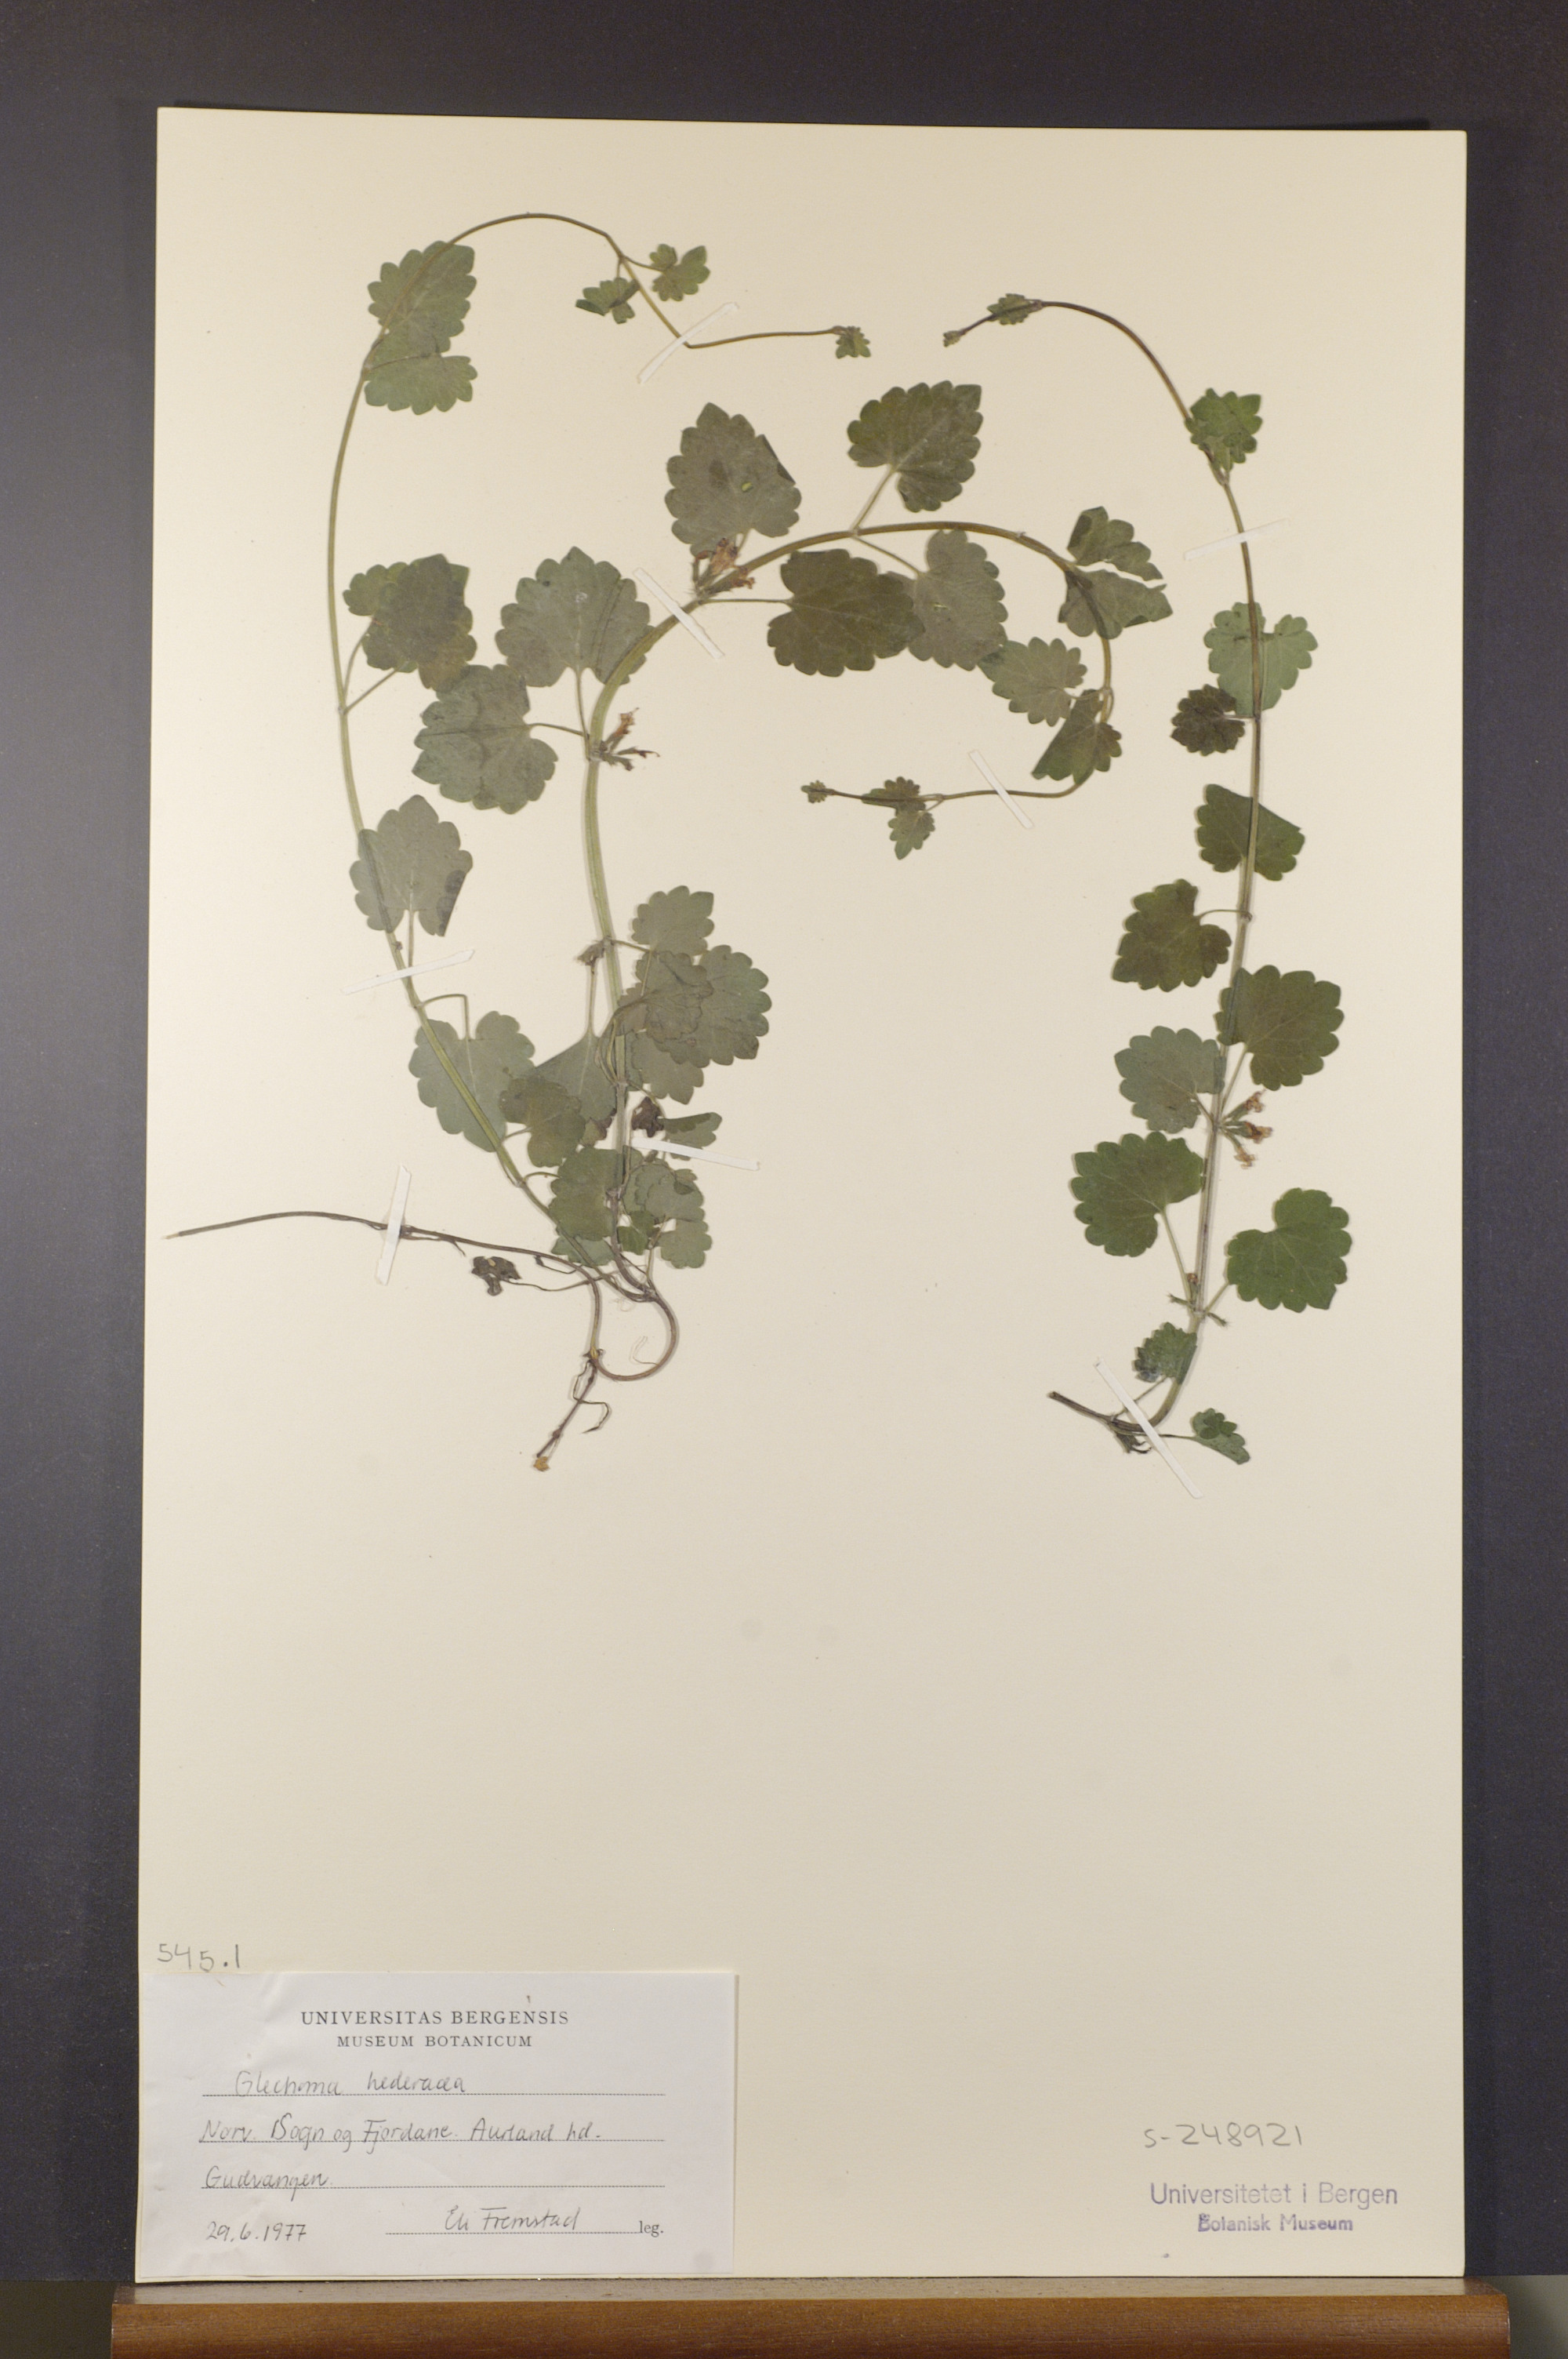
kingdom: Plantae
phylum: Tracheophyta
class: Magnoliopsida
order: Lamiales
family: Lamiaceae
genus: Glechoma
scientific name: Glechoma hederacea
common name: Ground ivy
